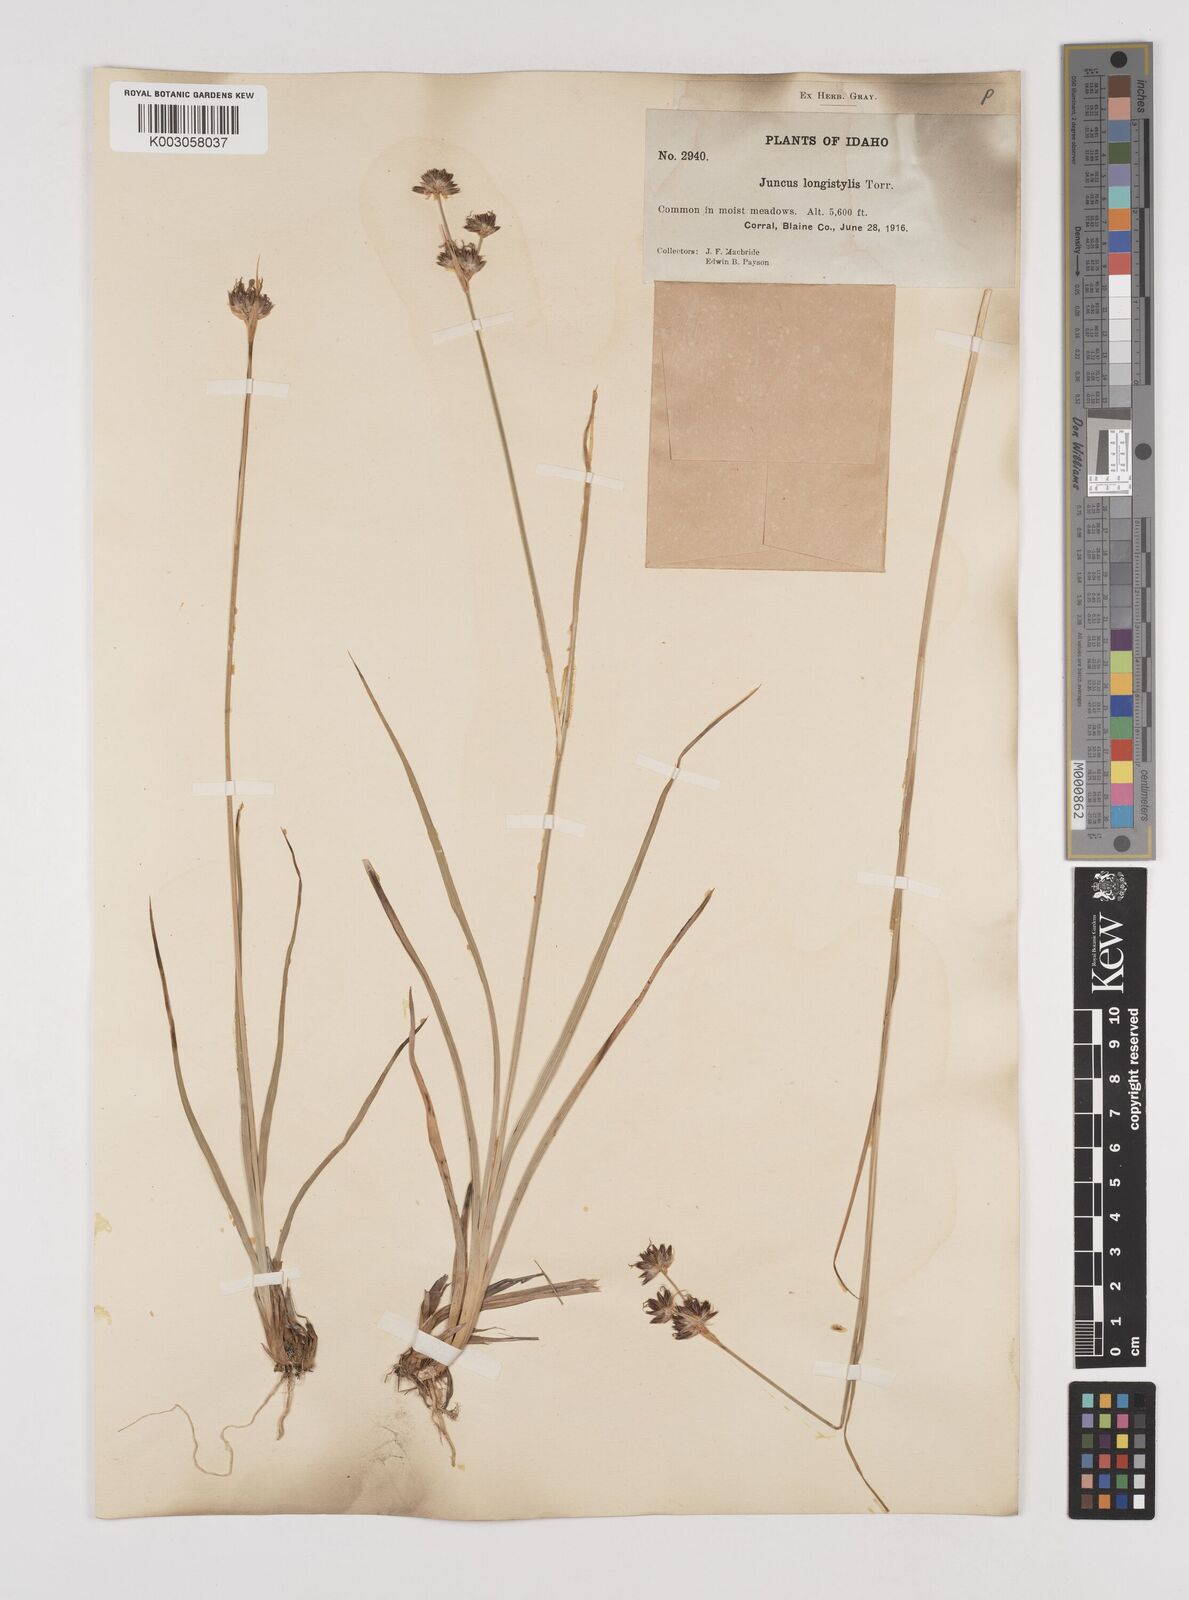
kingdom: Plantae
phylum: Tracheophyta
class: Liliopsida
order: Poales
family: Juncaceae
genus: Juncus
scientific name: Juncus longistylis
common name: Long-style rush
